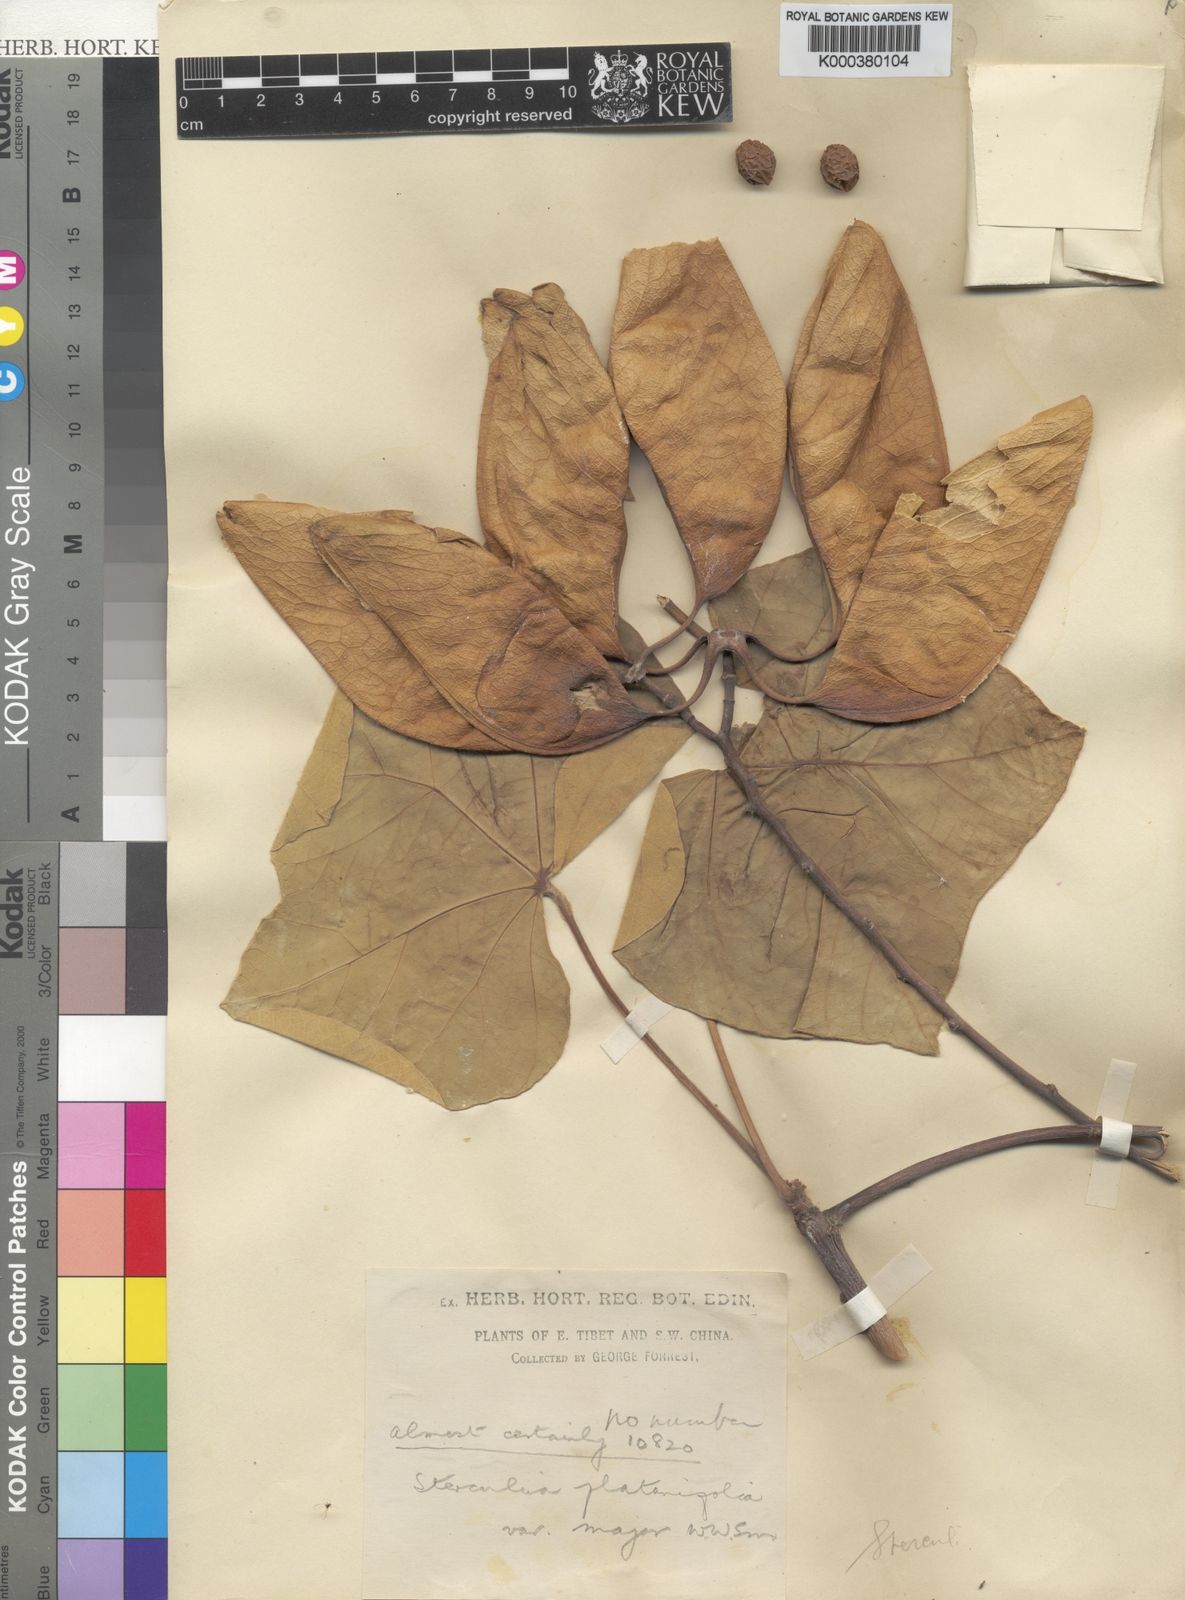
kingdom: Plantae
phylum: Tracheophyta
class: Magnoliopsida
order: Malvales
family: Malvaceae
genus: Firmiana
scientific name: Firmiana major
